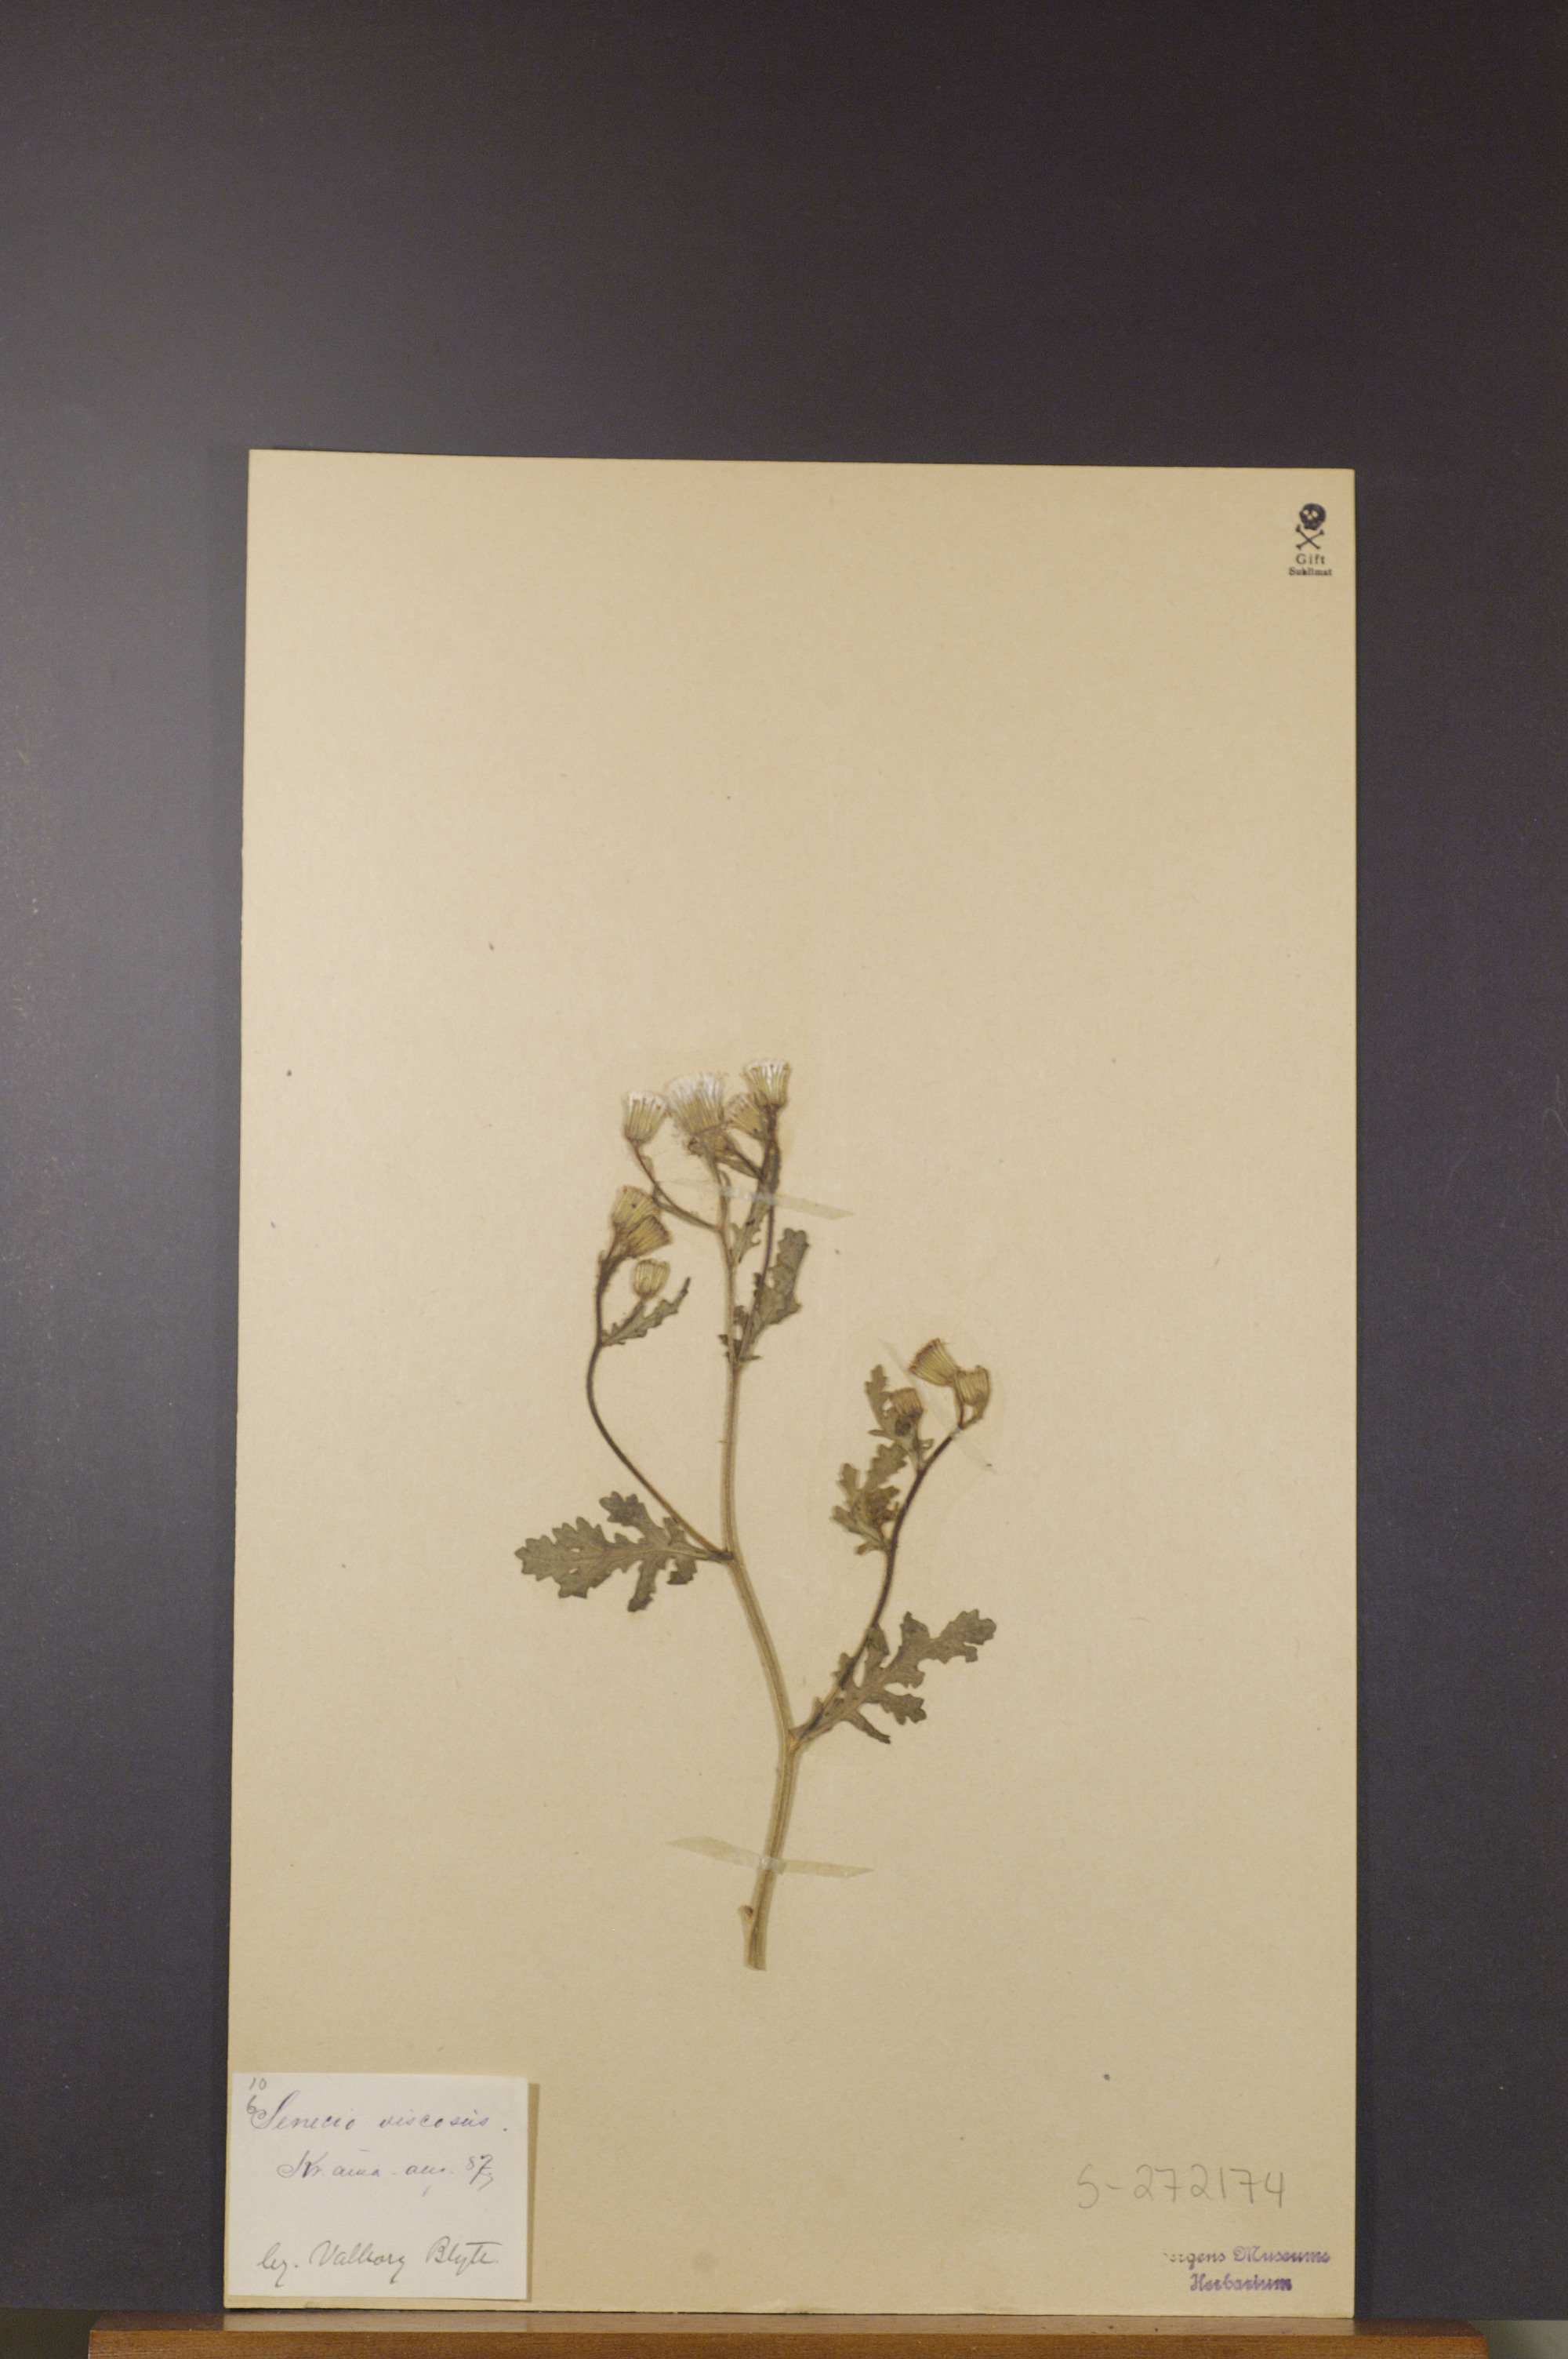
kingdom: Plantae
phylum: Tracheophyta
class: Magnoliopsida
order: Asterales
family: Asteraceae
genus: Senecio
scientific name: Senecio viscosus
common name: Sticky groundsel
